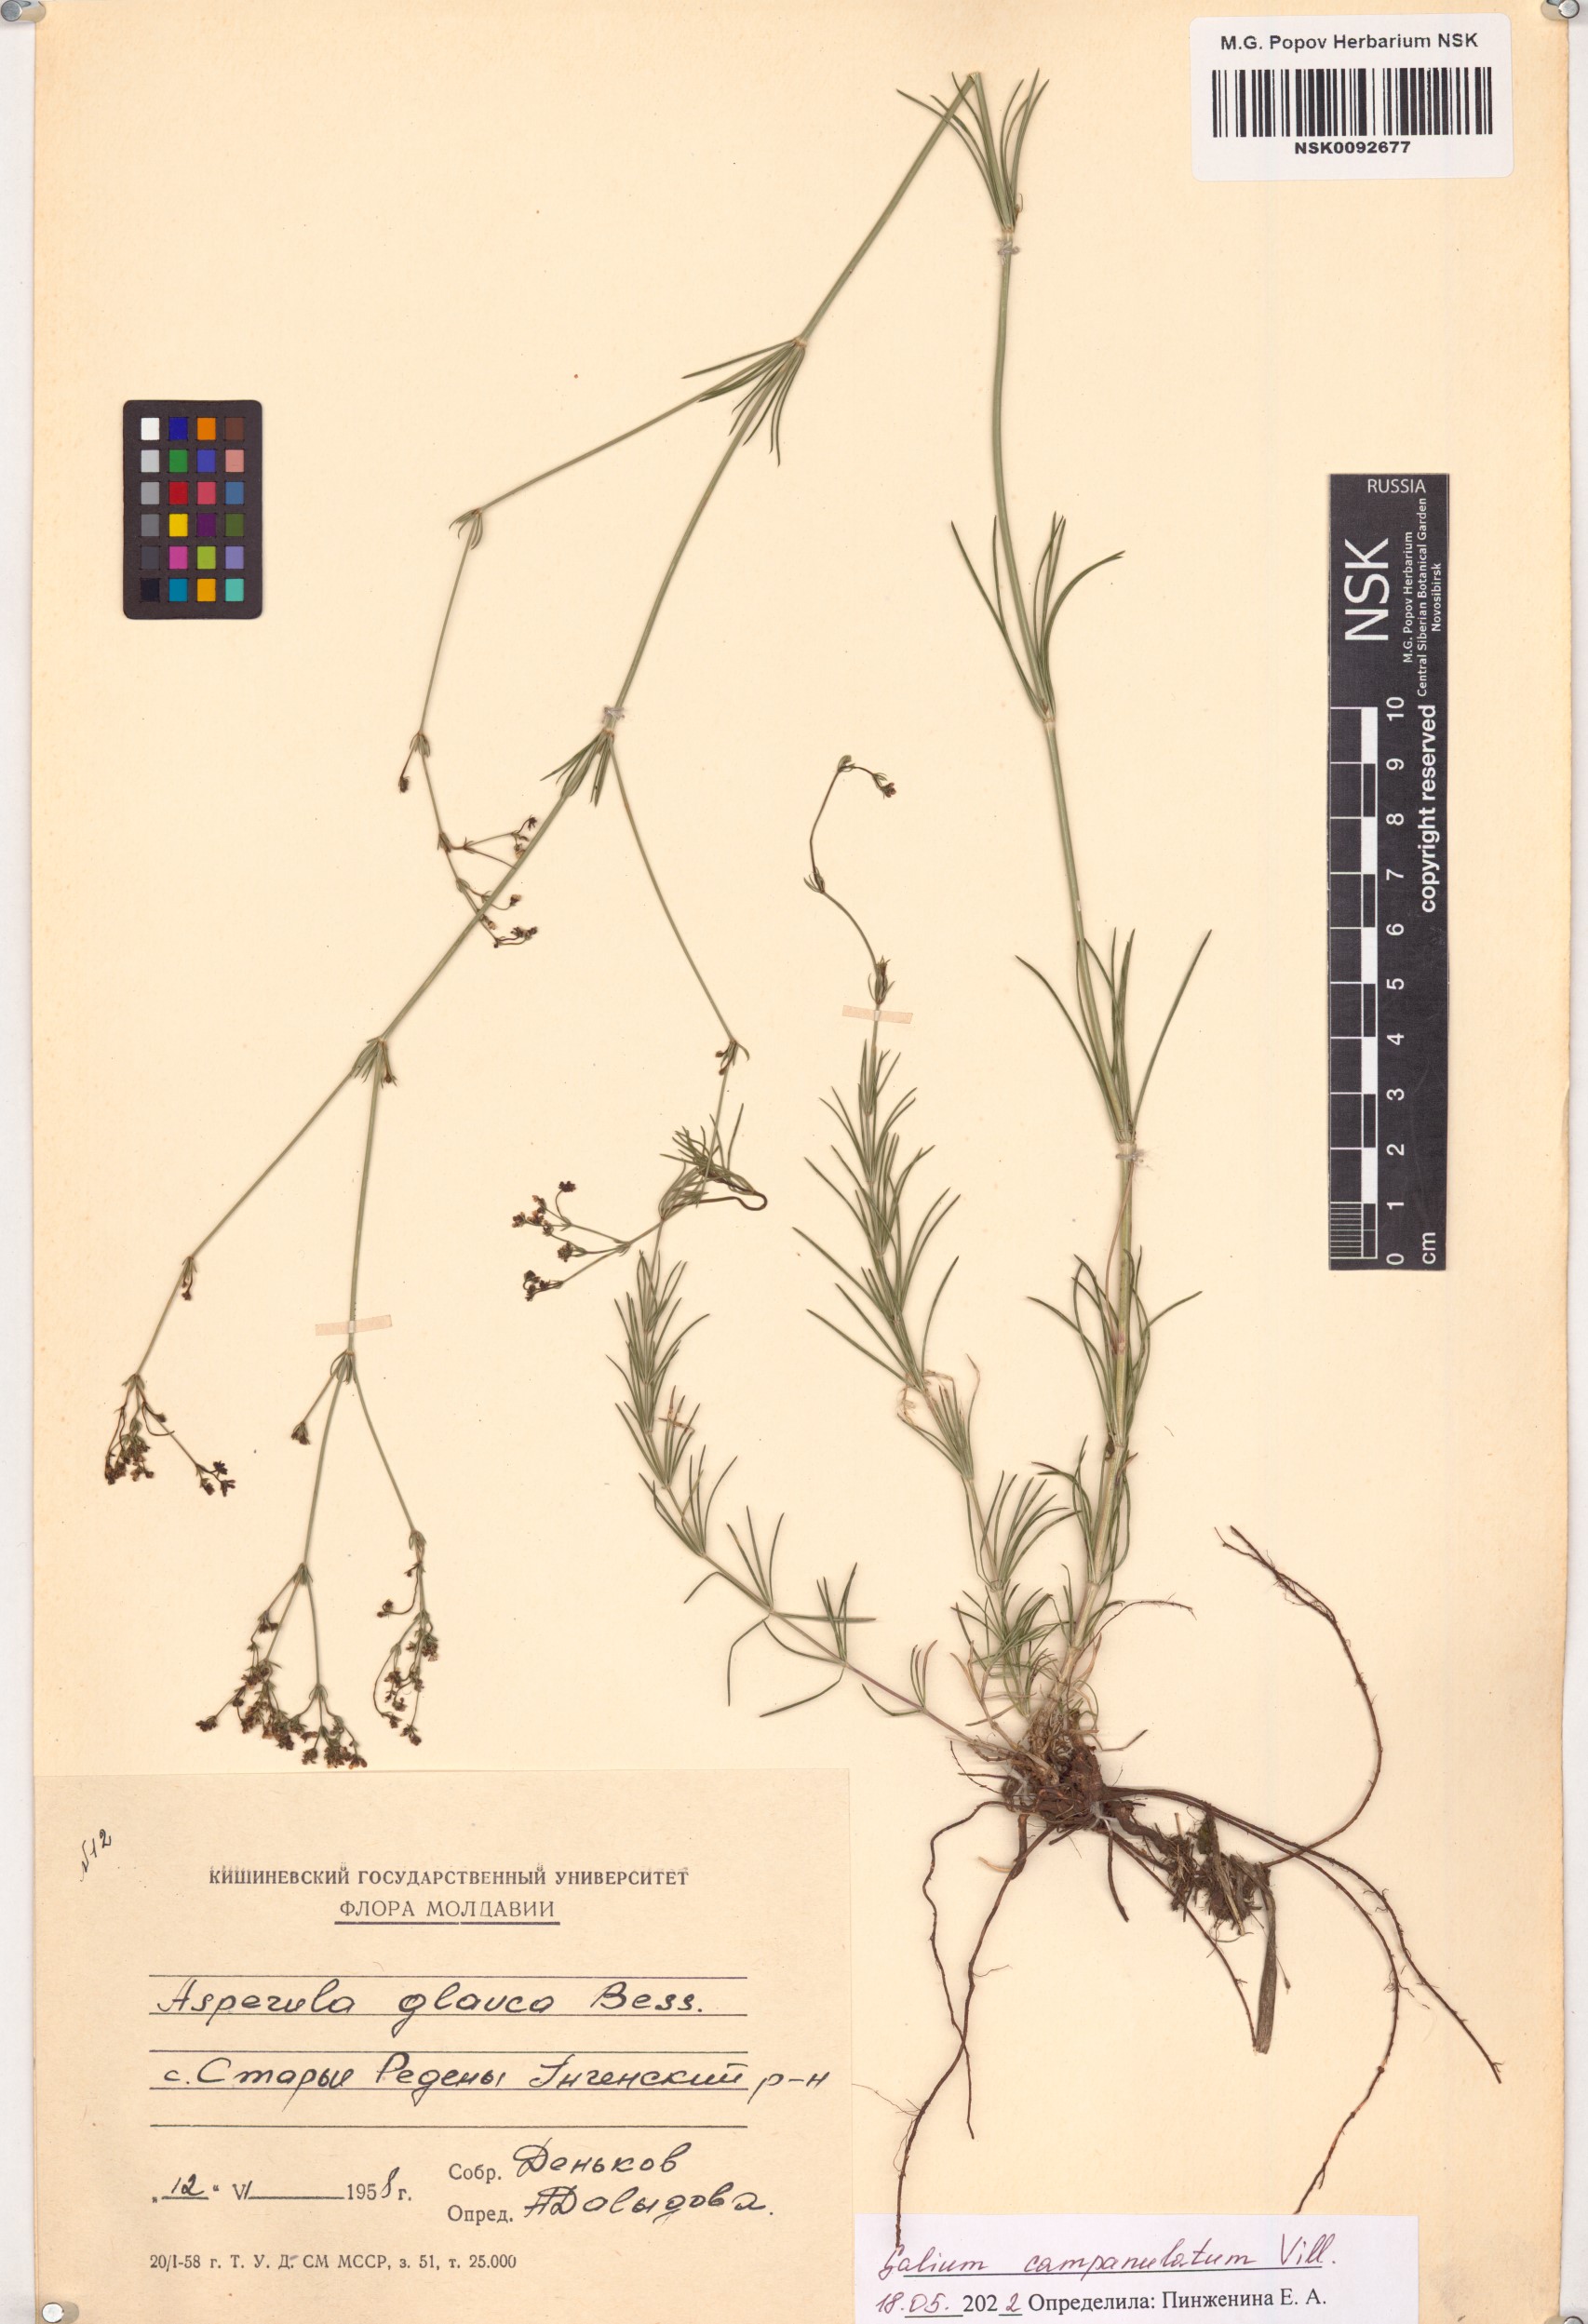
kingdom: Plantae
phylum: Tracheophyta
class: Magnoliopsida
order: Gentianales
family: Rubiaceae
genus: Galium
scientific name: Galium glaucum
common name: Waxy bedstraw
